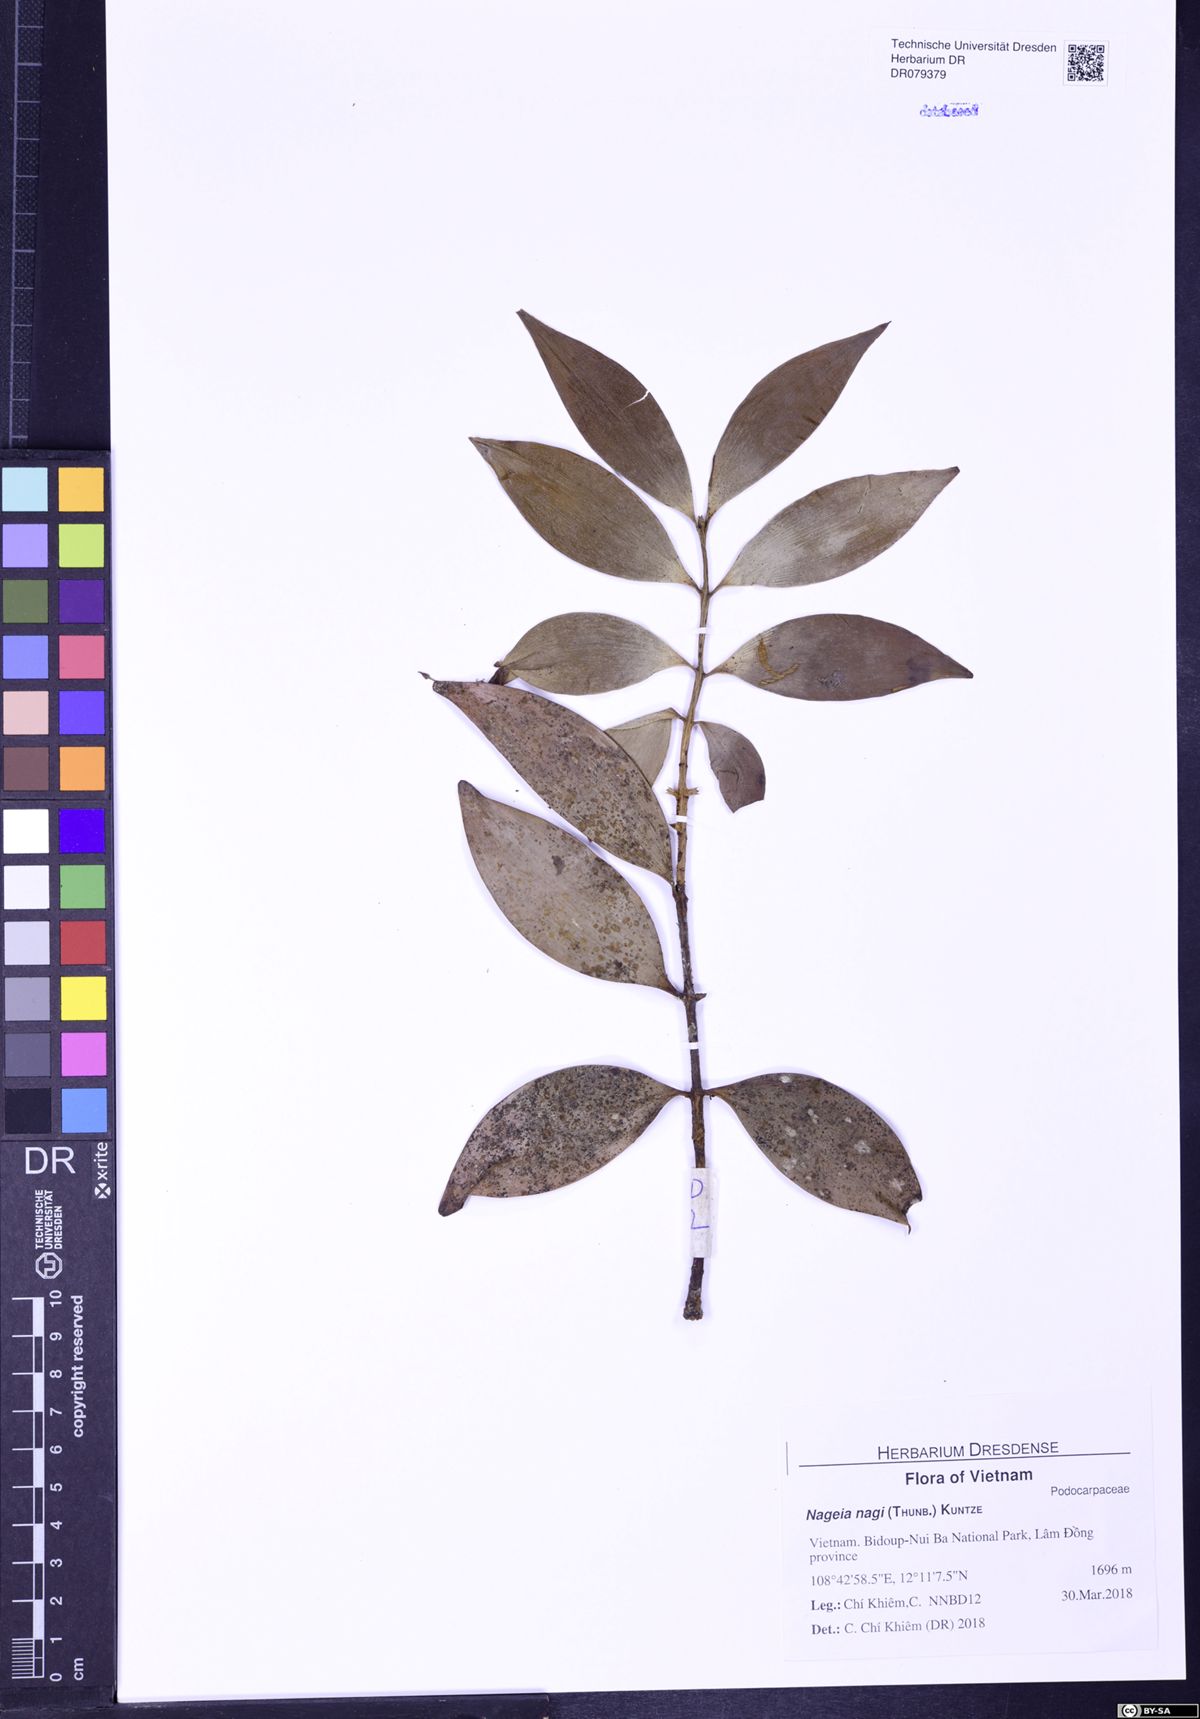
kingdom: Plantae
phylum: Tracheophyta
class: Pinopsida
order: Pinales
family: Podocarpaceae
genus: Nageia
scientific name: Nageia nagi
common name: Kaphal
